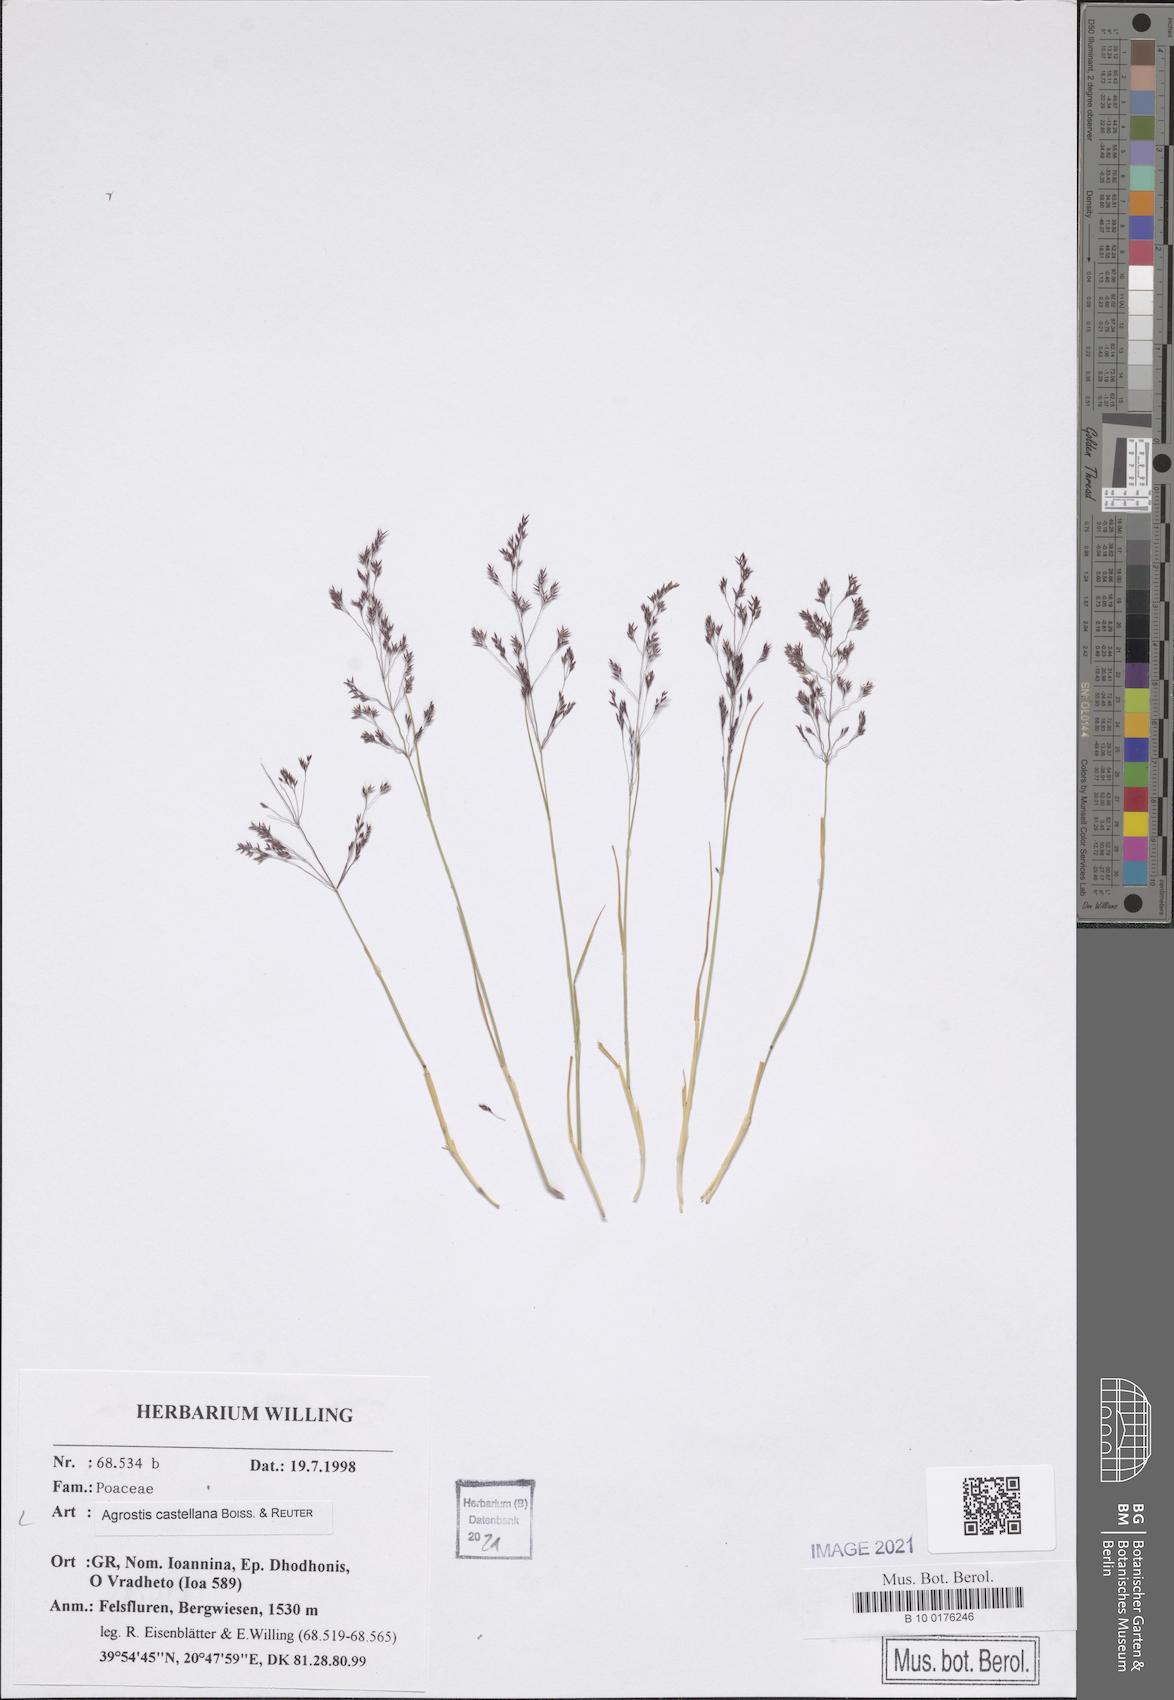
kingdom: Plantae
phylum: Tracheophyta
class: Liliopsida
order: Poales
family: Poaceae
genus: Agrostis
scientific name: Agrostis castellana
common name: Highland bent
